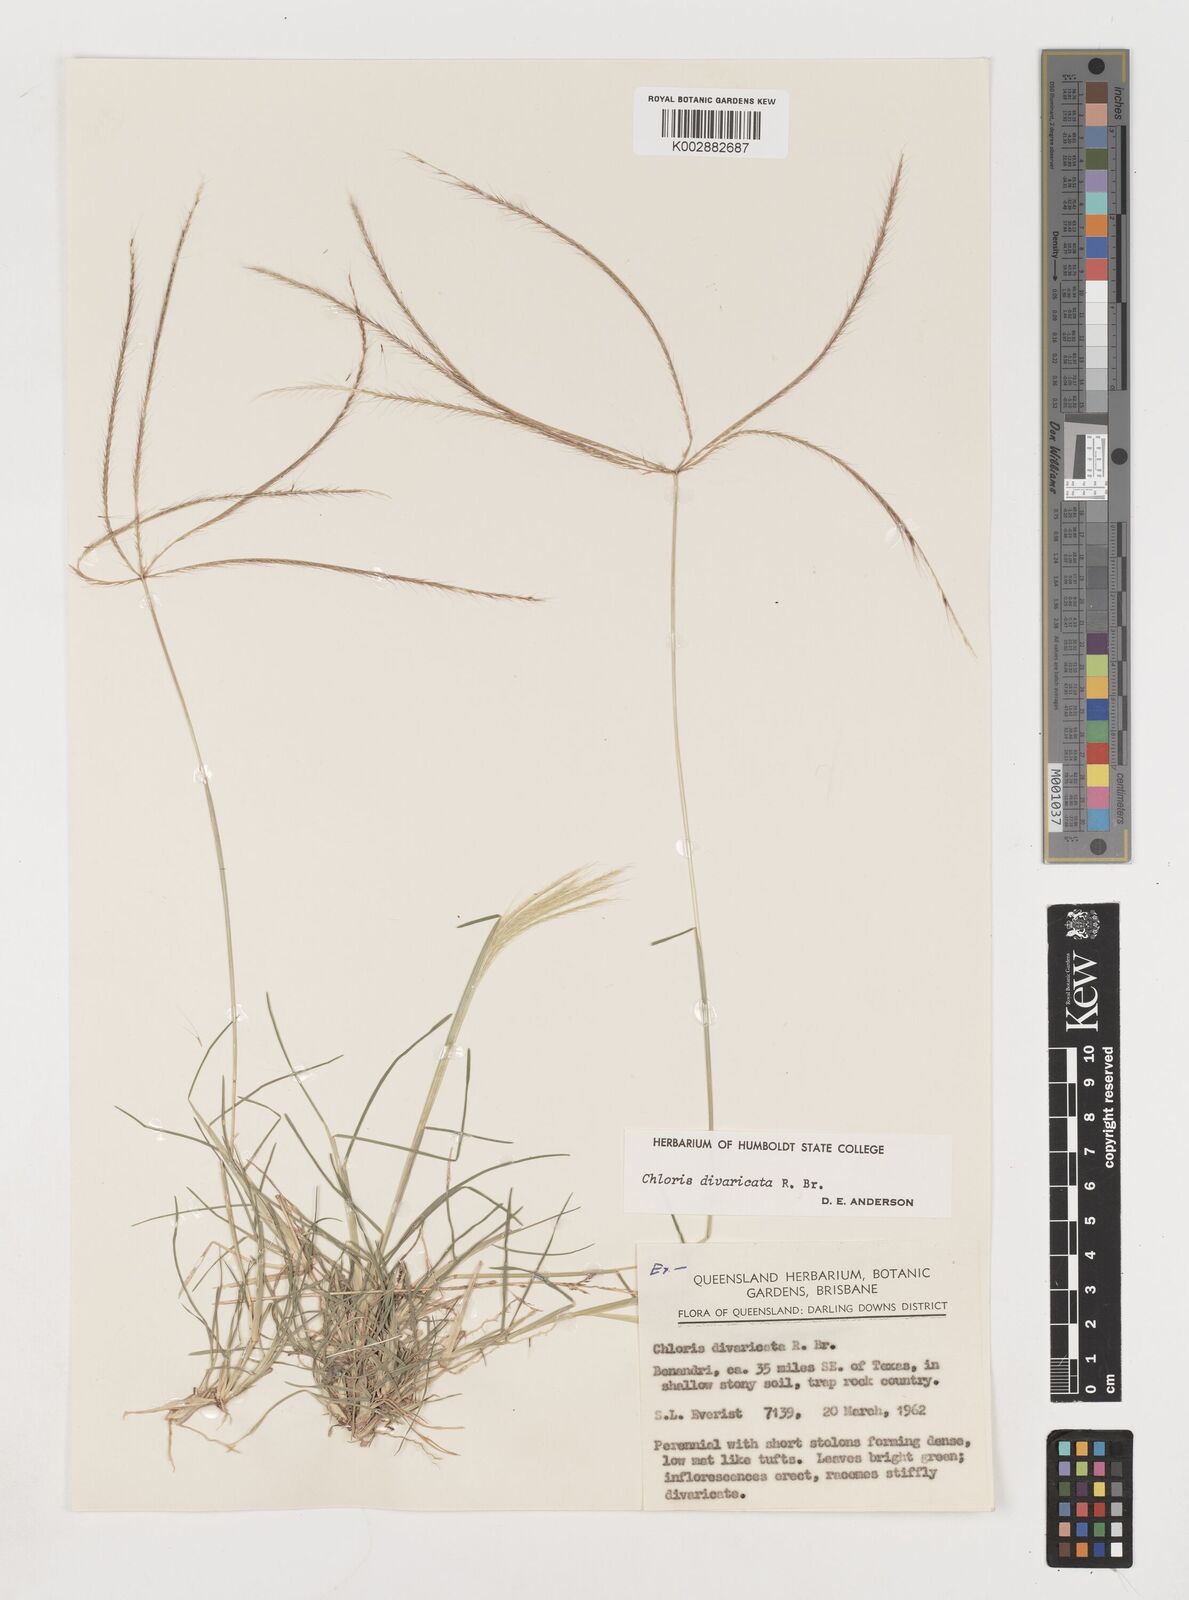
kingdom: Plantae
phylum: Tracheophyta
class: Liliopsida
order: Poales
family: Poaceae
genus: Chloris
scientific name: Chloris divaricata
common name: Spreading windmill grass
